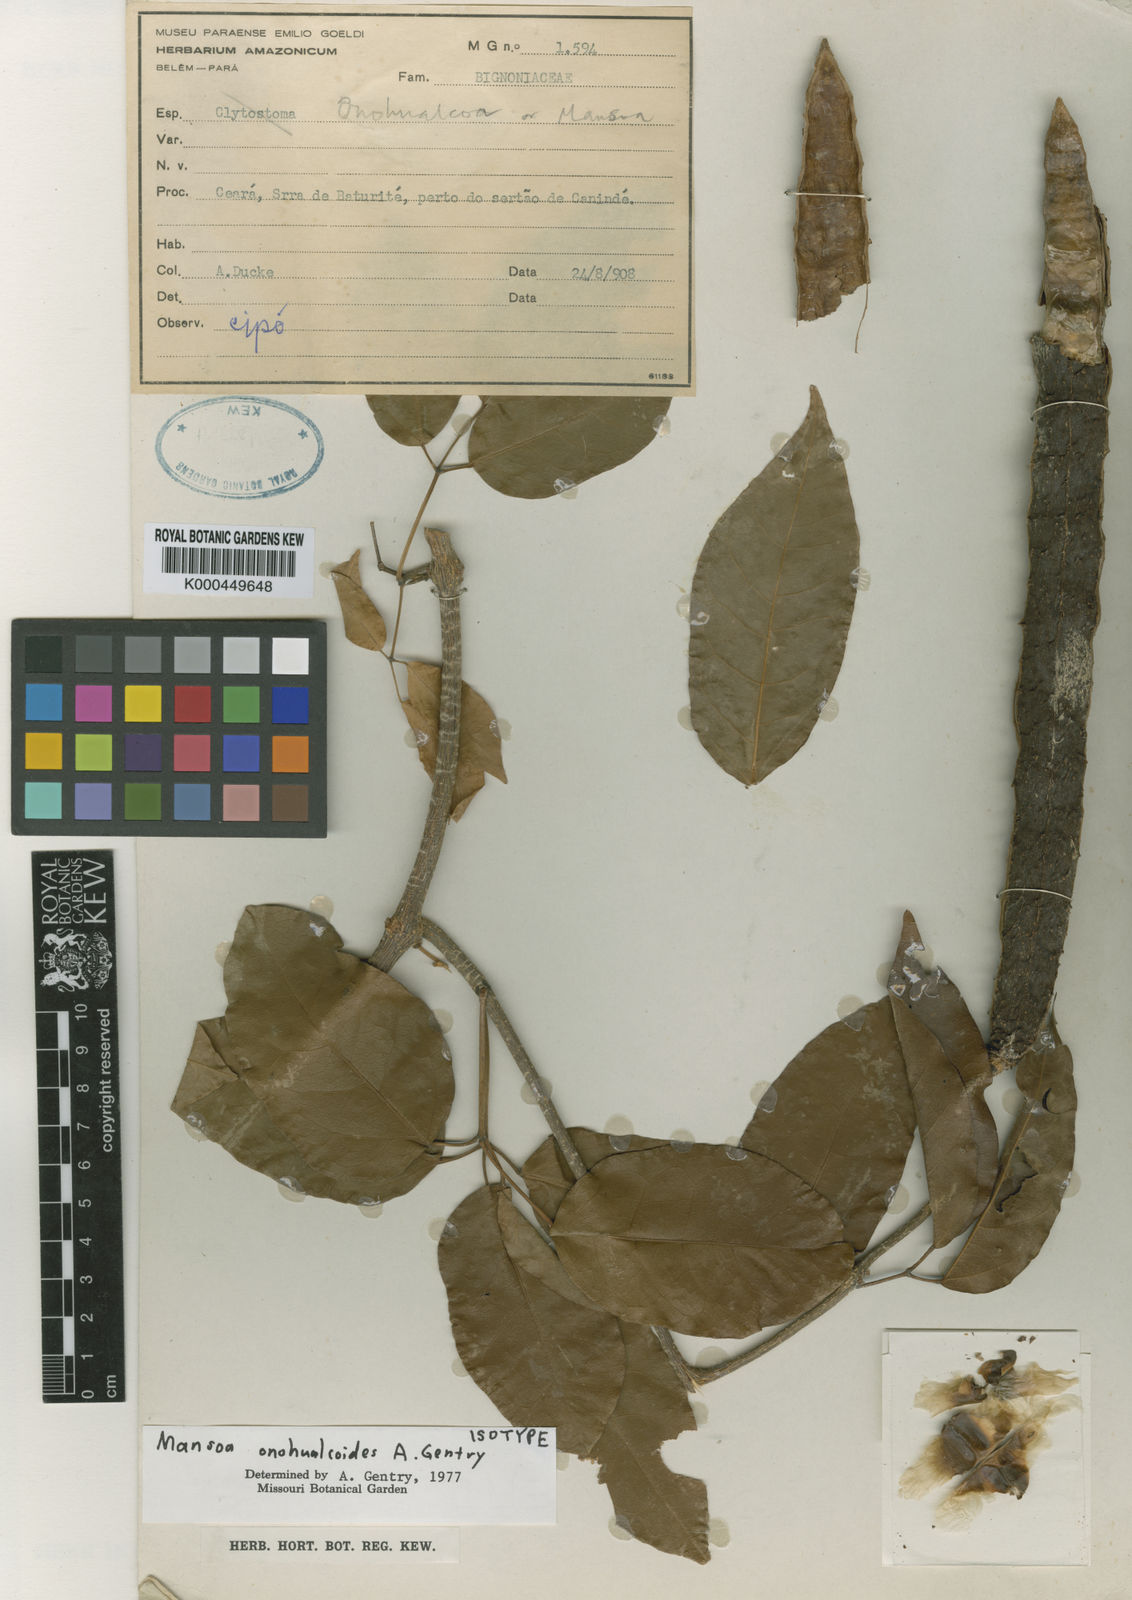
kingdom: Plantae
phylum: Tracheophyta
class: Magnoliopsida
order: Lamiales
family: Bignoniaceae
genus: Mansoa
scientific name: Mansoa onohualcoides
